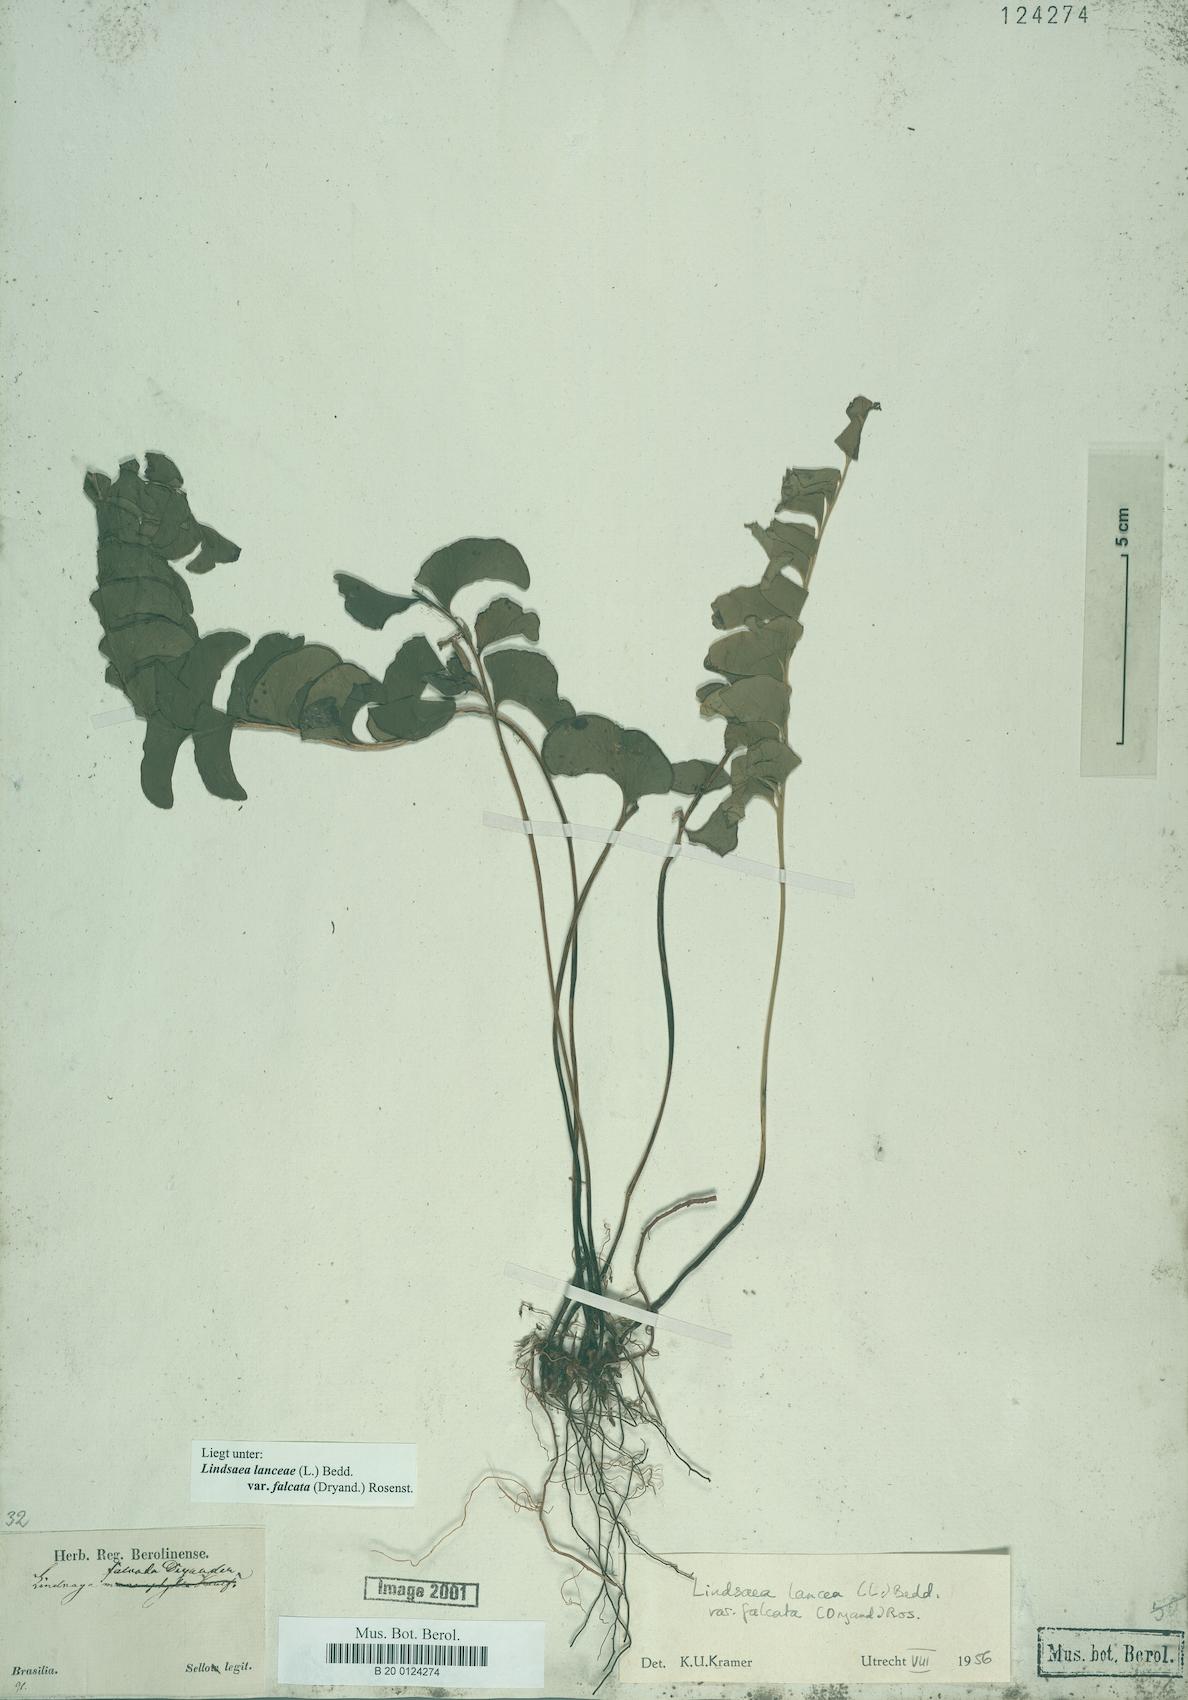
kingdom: Plantae
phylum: Tracheophyta
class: Polypodiopsida
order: Polypodiales
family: Lindsaeaceae
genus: Lindsaea
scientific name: Lindsaea falcata
